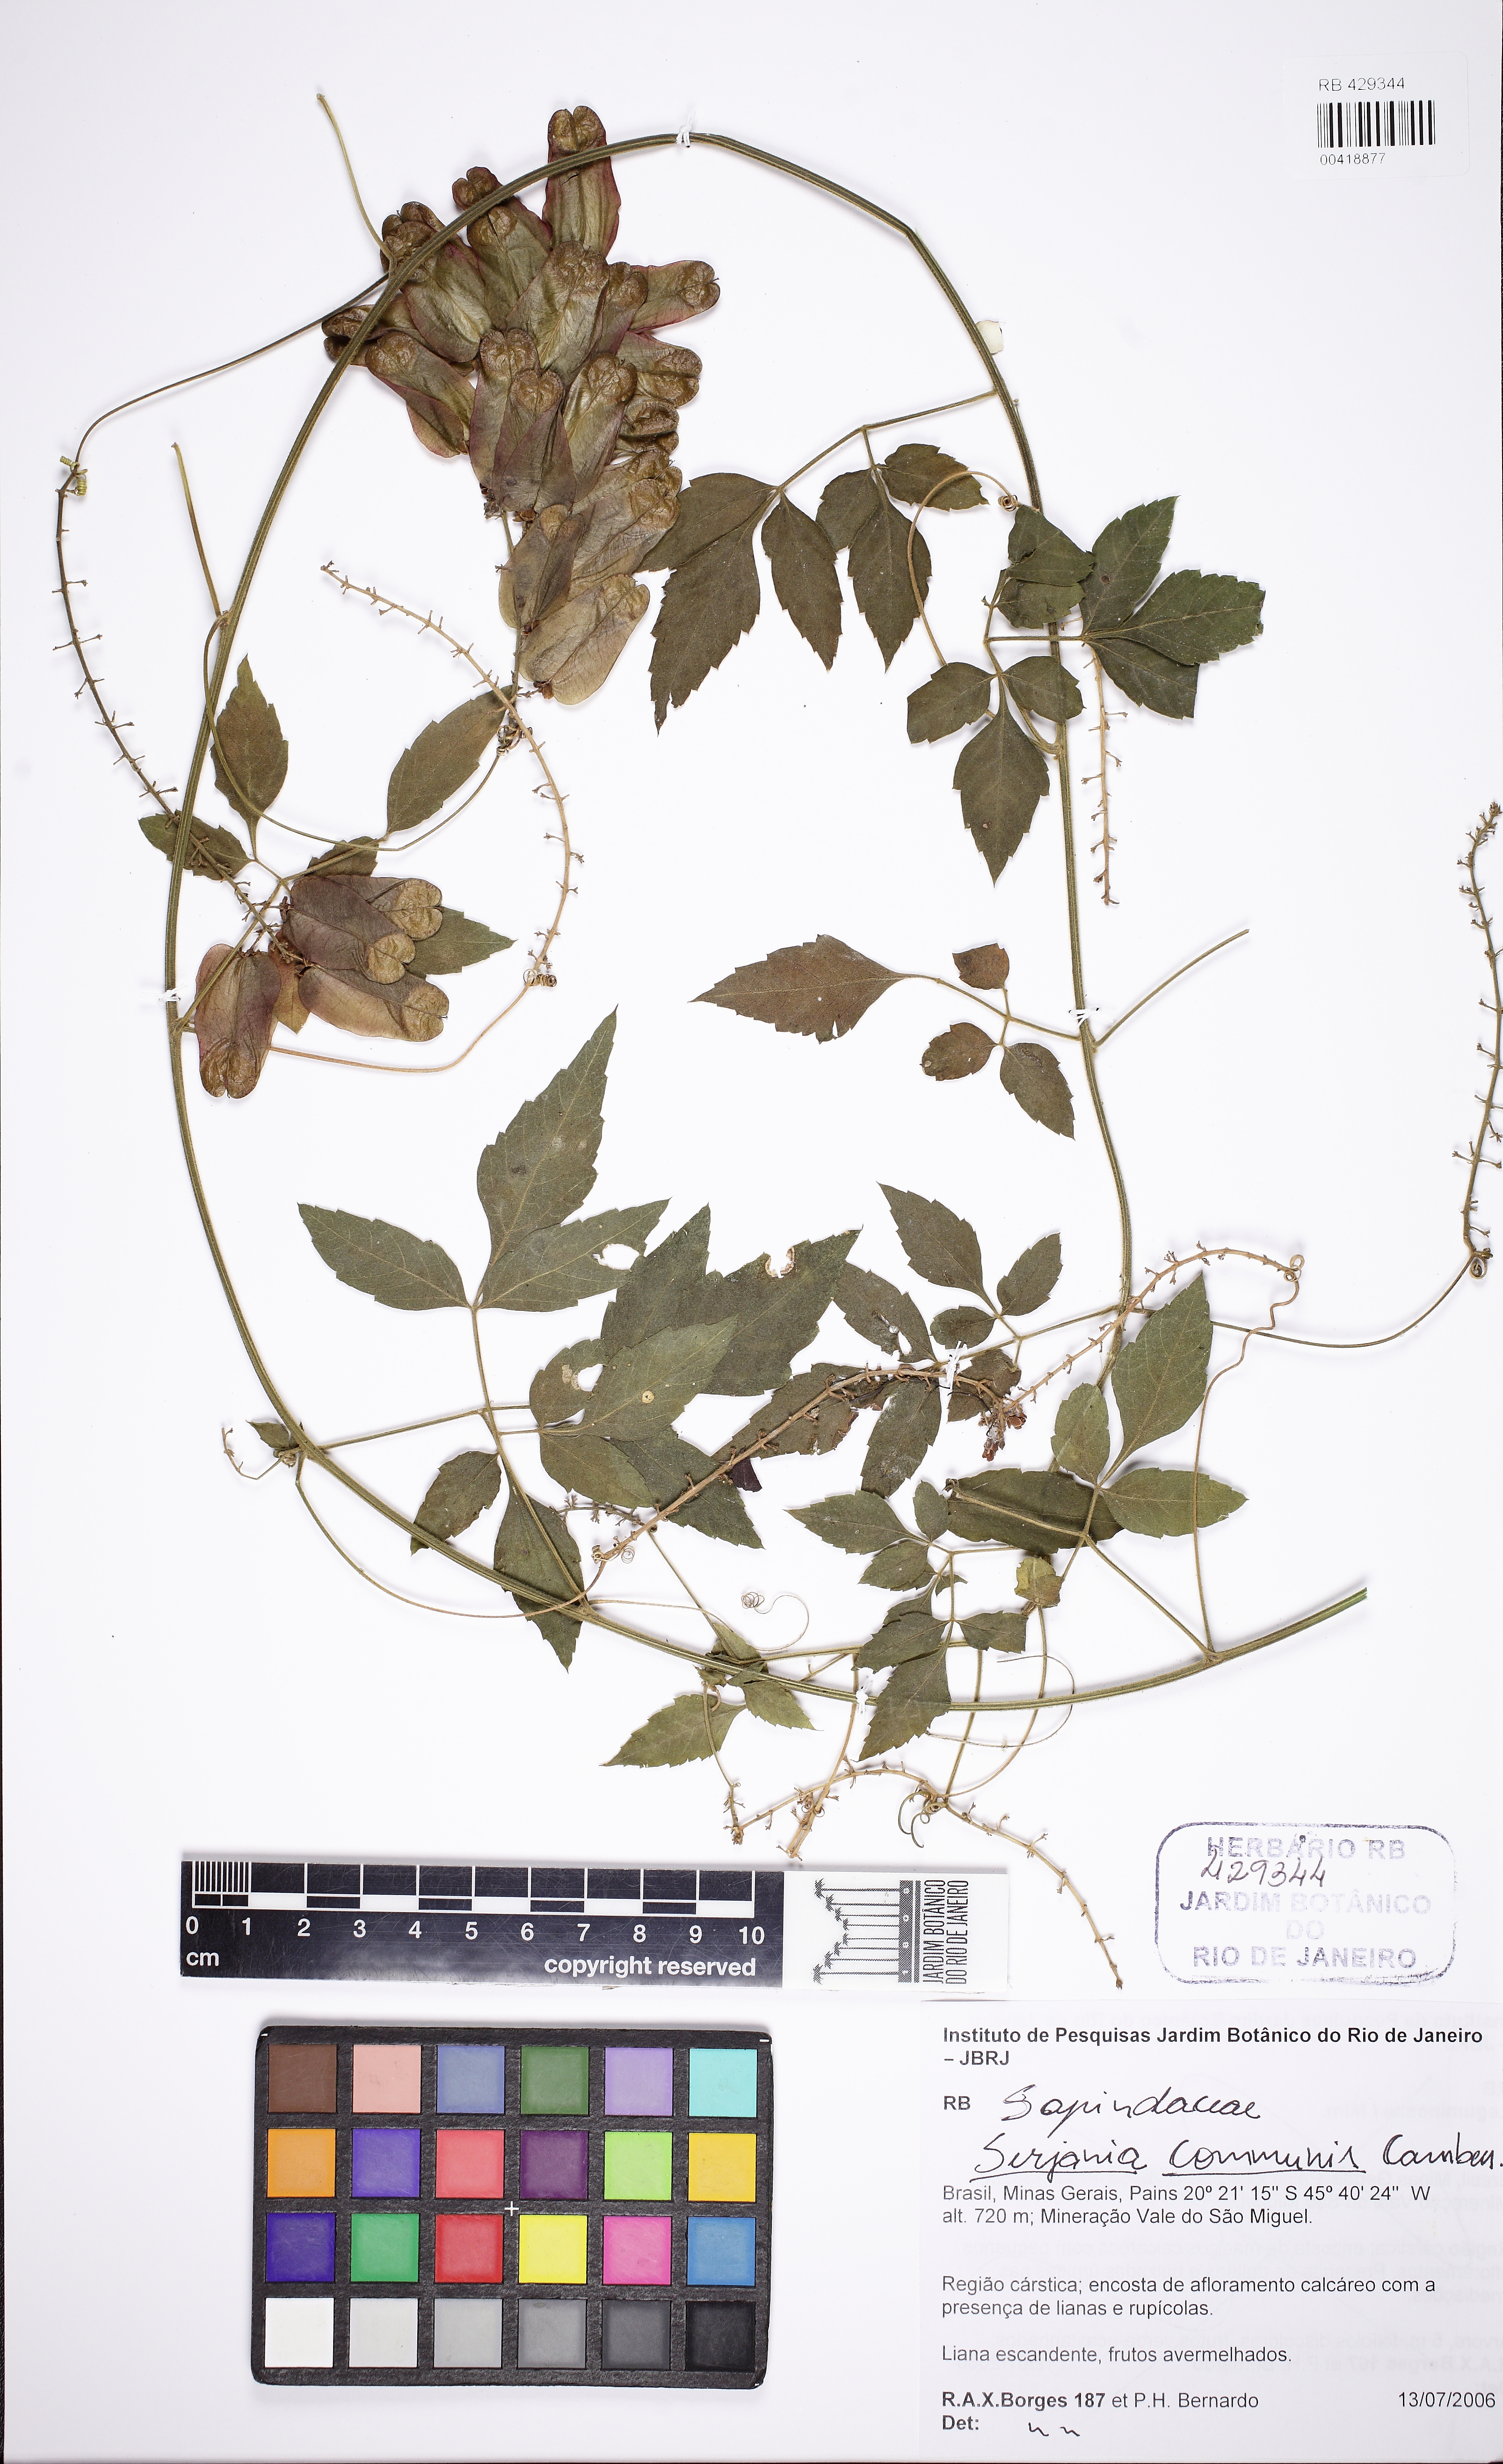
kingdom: Plantae
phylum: Tracheophyta
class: Magnoliopsida
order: Sapindales
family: Sapindaceae
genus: Serjania
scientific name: Serjania communis
